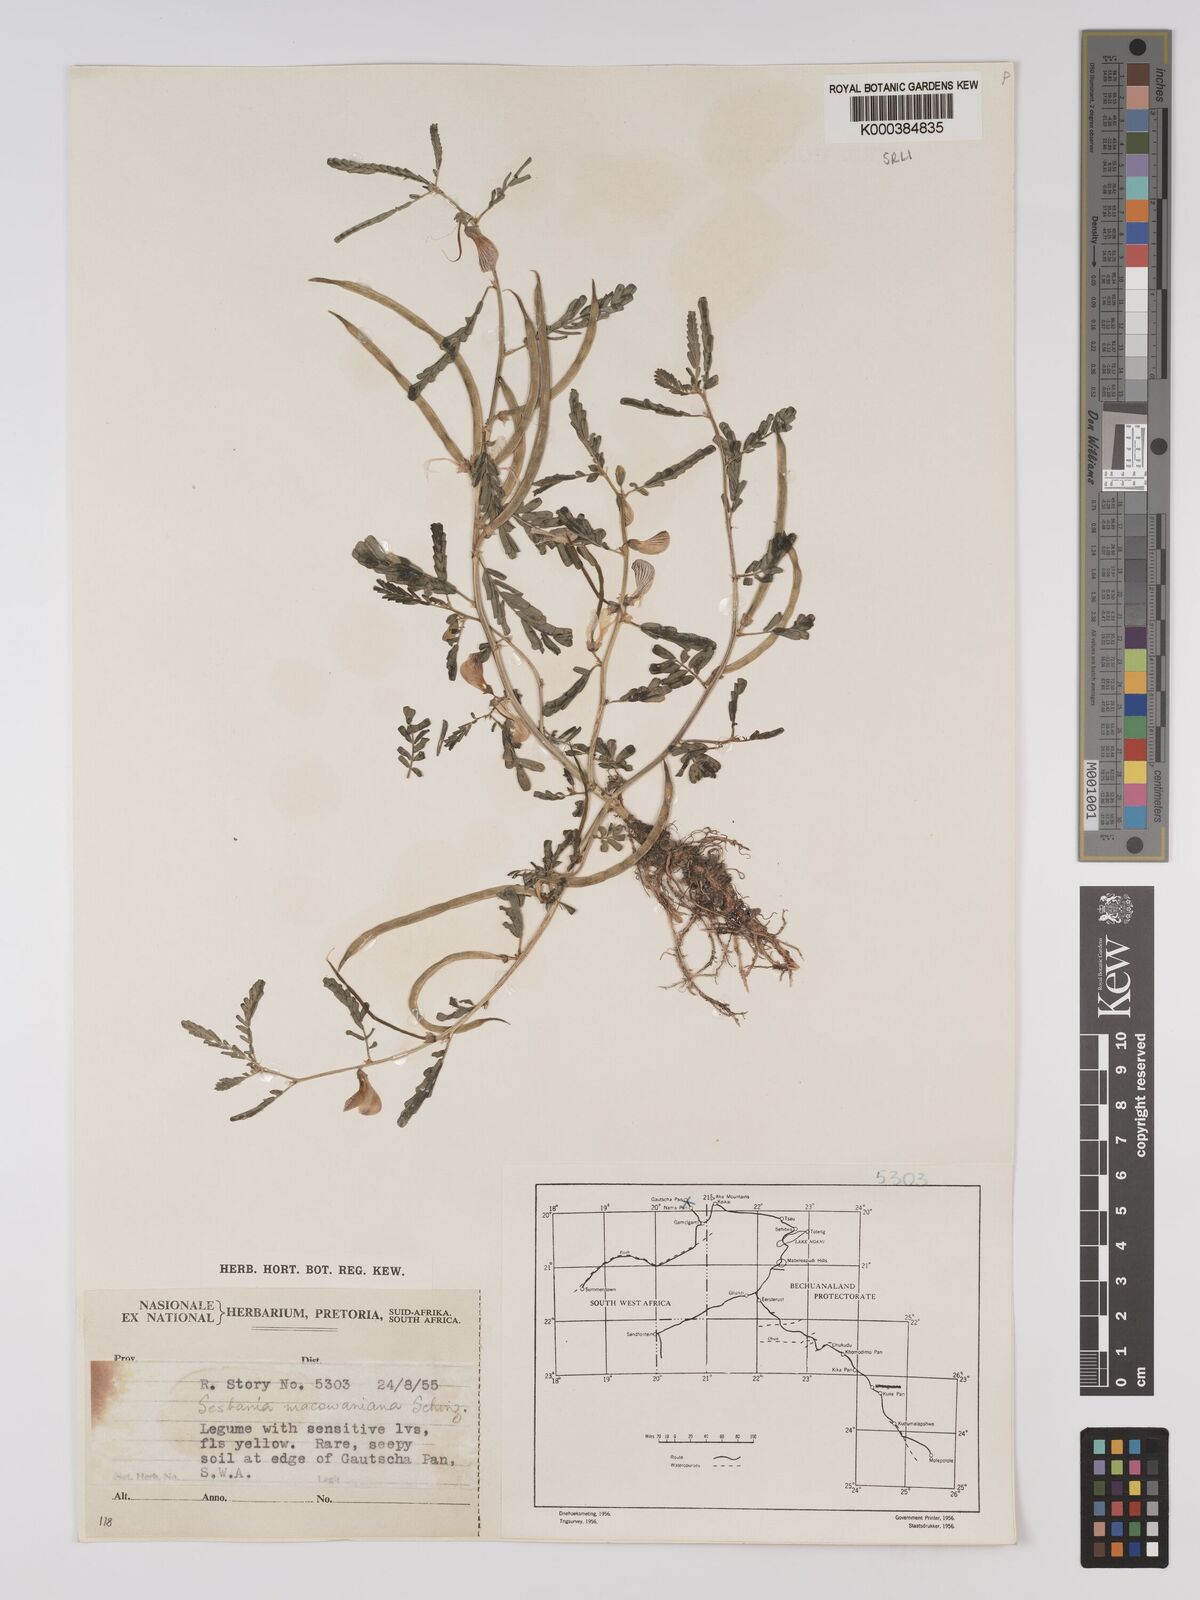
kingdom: Plantae
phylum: Tracheophyta
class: Magnoliopsida
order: Fabales
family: Fabaceae
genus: Sesbania
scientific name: Sesbania macowaniana
